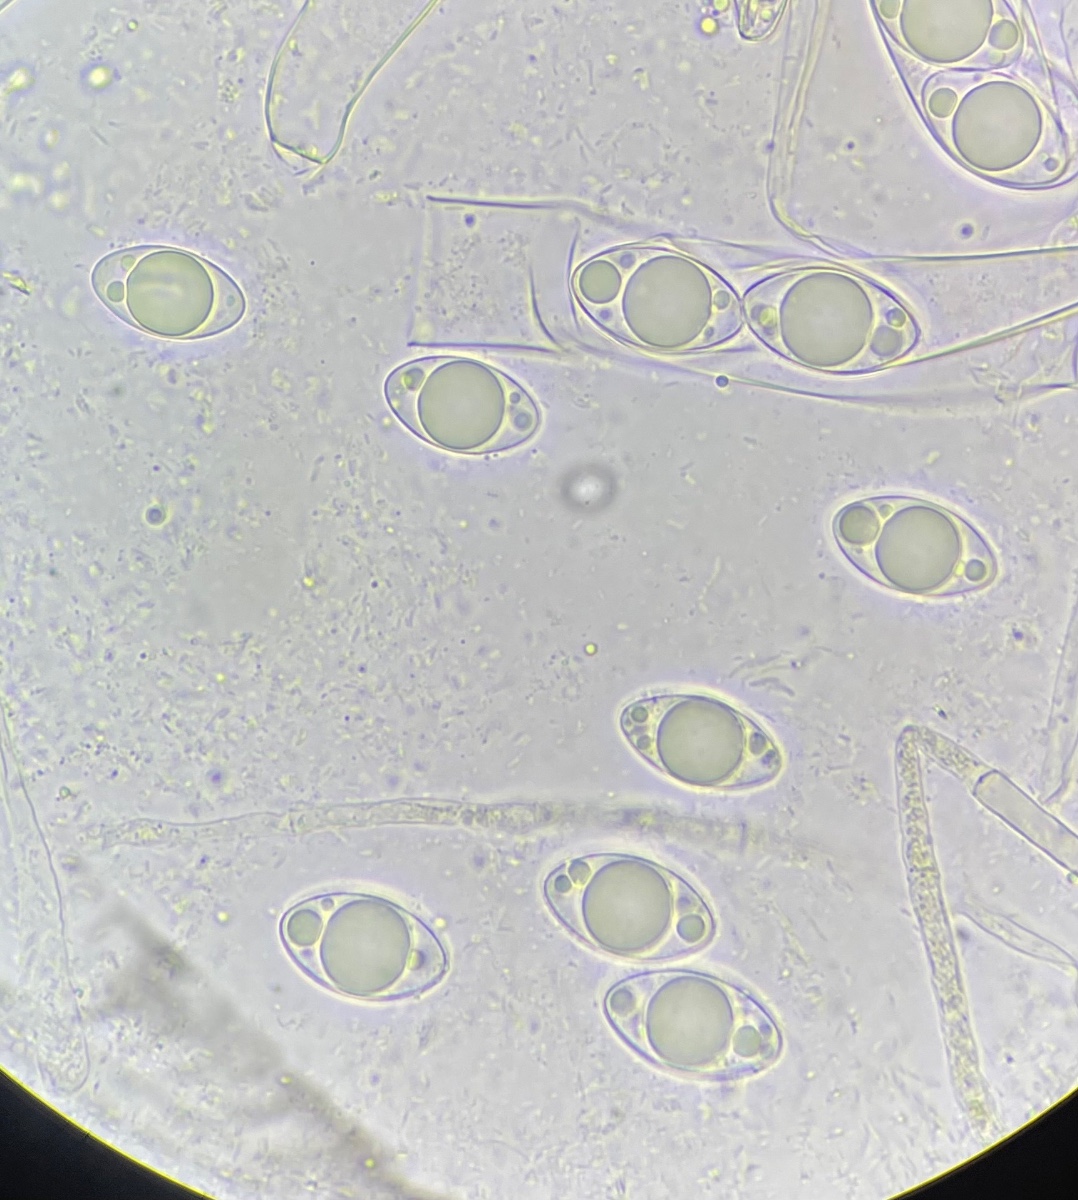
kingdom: Fungi
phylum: Ascomycota
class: Pezizomycetes
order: Pezizales
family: Helvellaceae
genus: Helvella
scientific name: Helvella macropus
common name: højstokket foldhat
